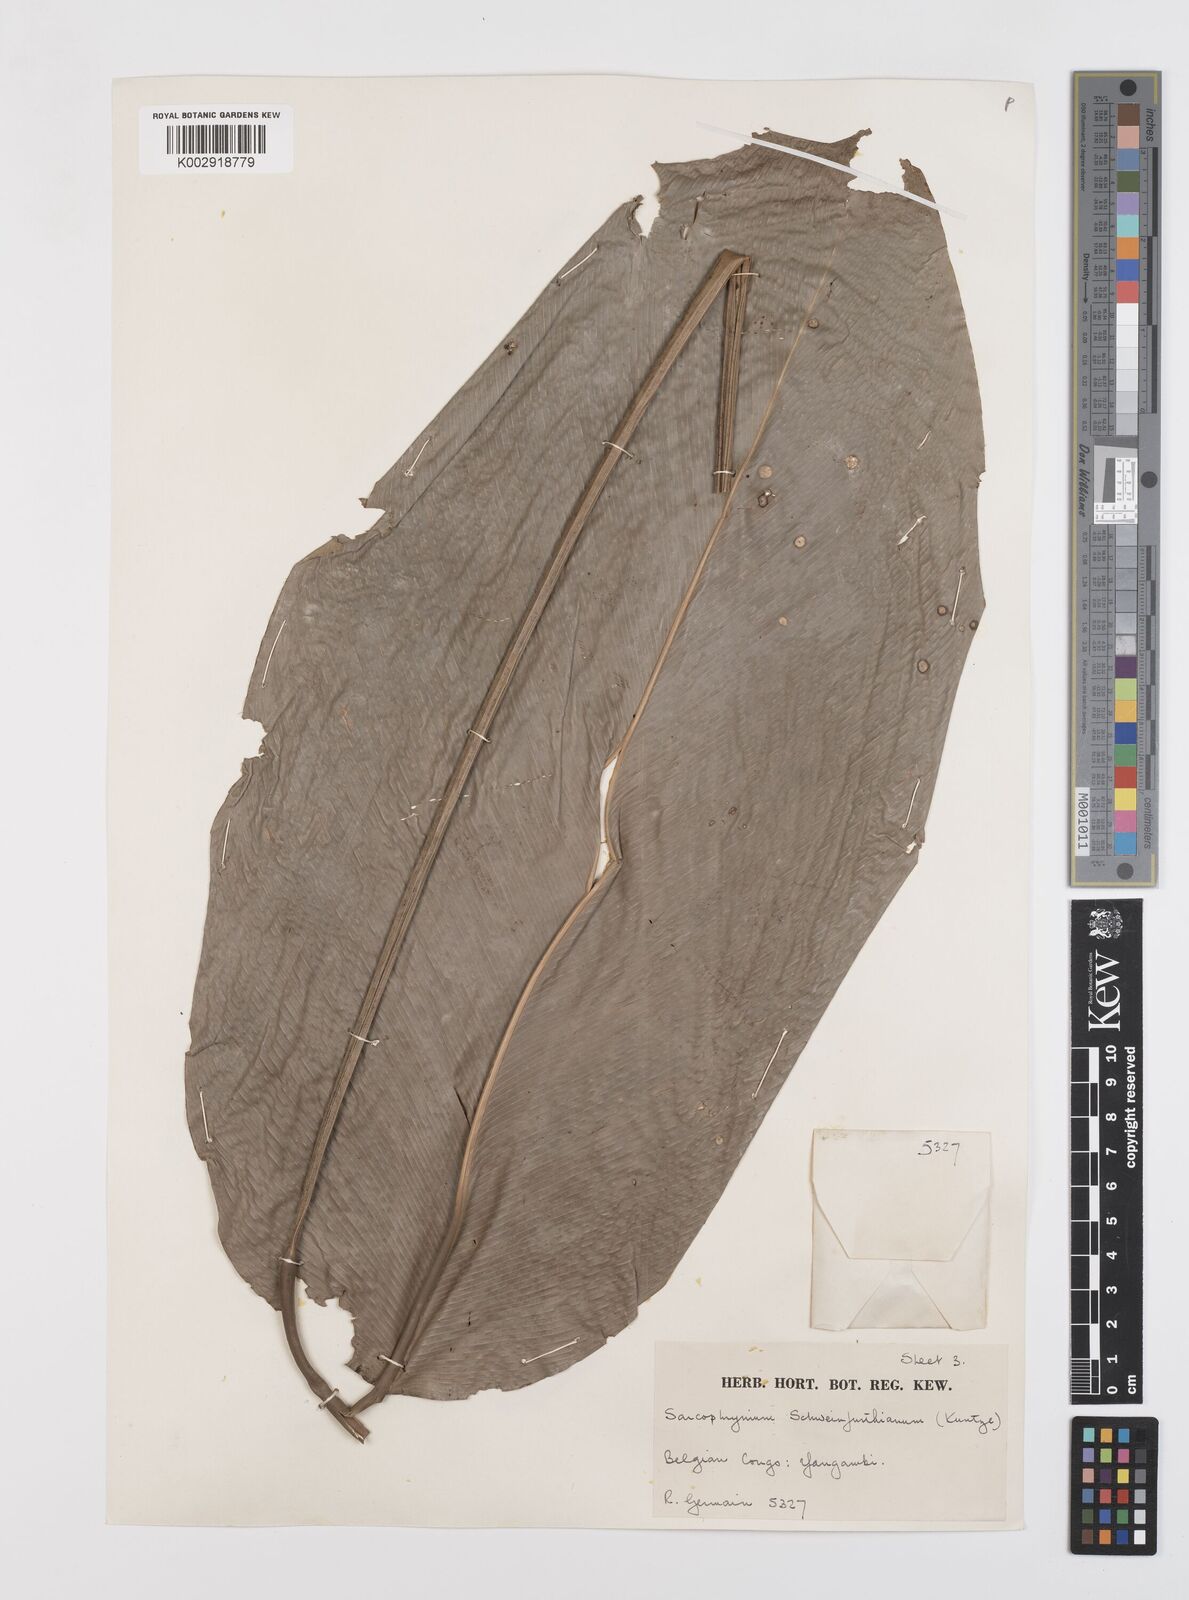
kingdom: Plantae
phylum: Tracheophyta
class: Liliopsida
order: Zingiberales
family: Marantaceae
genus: Sarcophrynium
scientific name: Sarcophrynium schweinfurthianum
